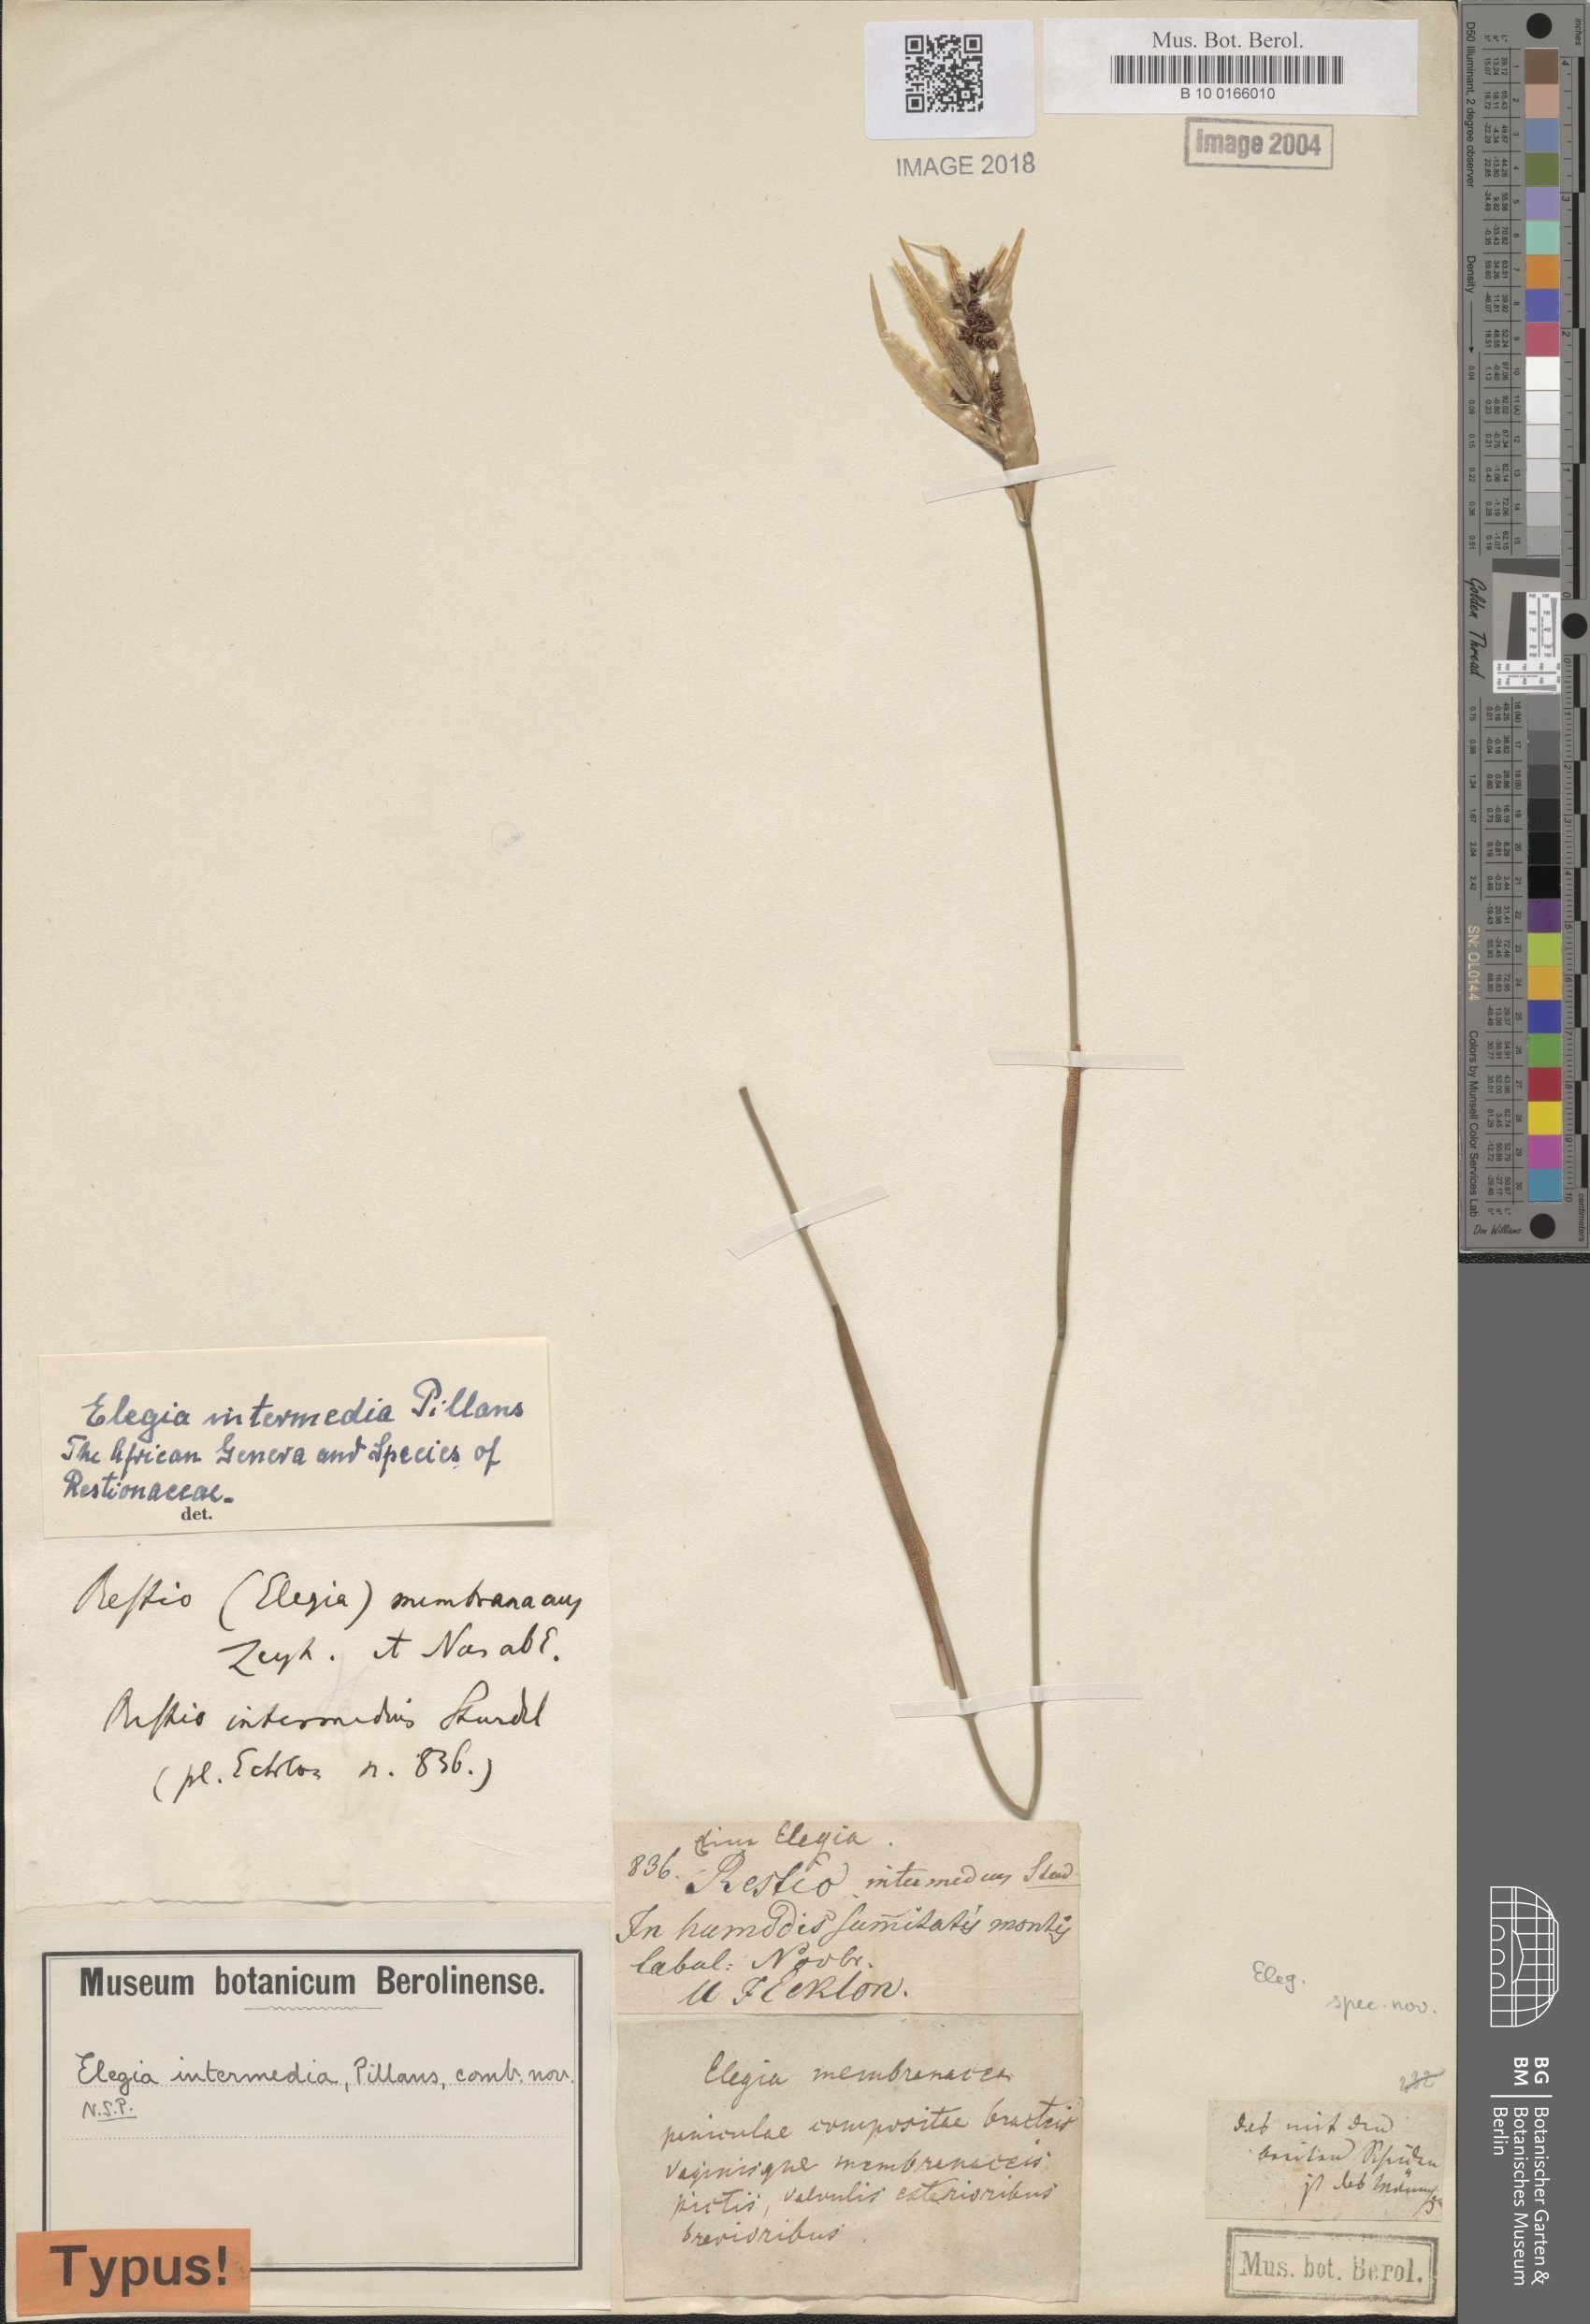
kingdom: Plantae
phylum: Tracheophyta
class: Liliopsida
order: Poales
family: Restionaceae
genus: Elegia
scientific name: Elegia intermedia
